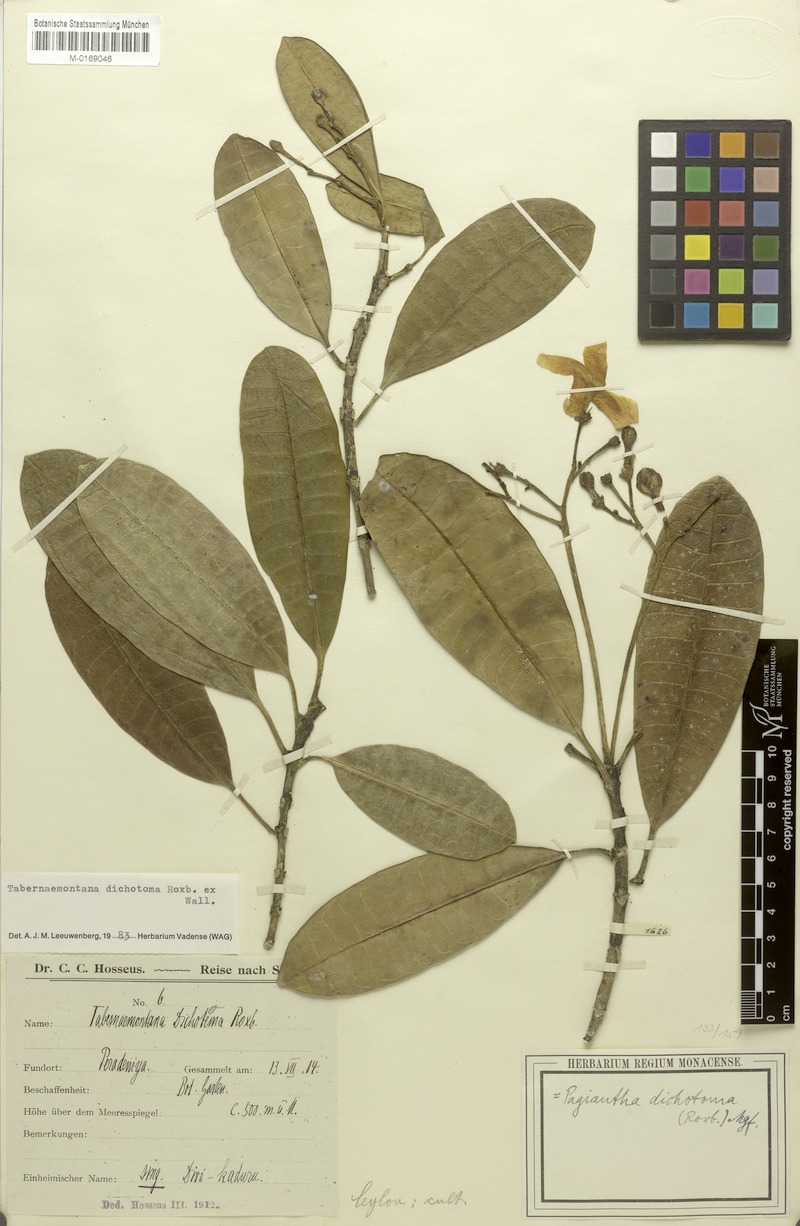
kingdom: Plantae
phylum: Tracheophyta
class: Magnoliopsida
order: Gentianales
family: Apocynaceae
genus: Tabernaemontana
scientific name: Tabernaemontana dichotoma
